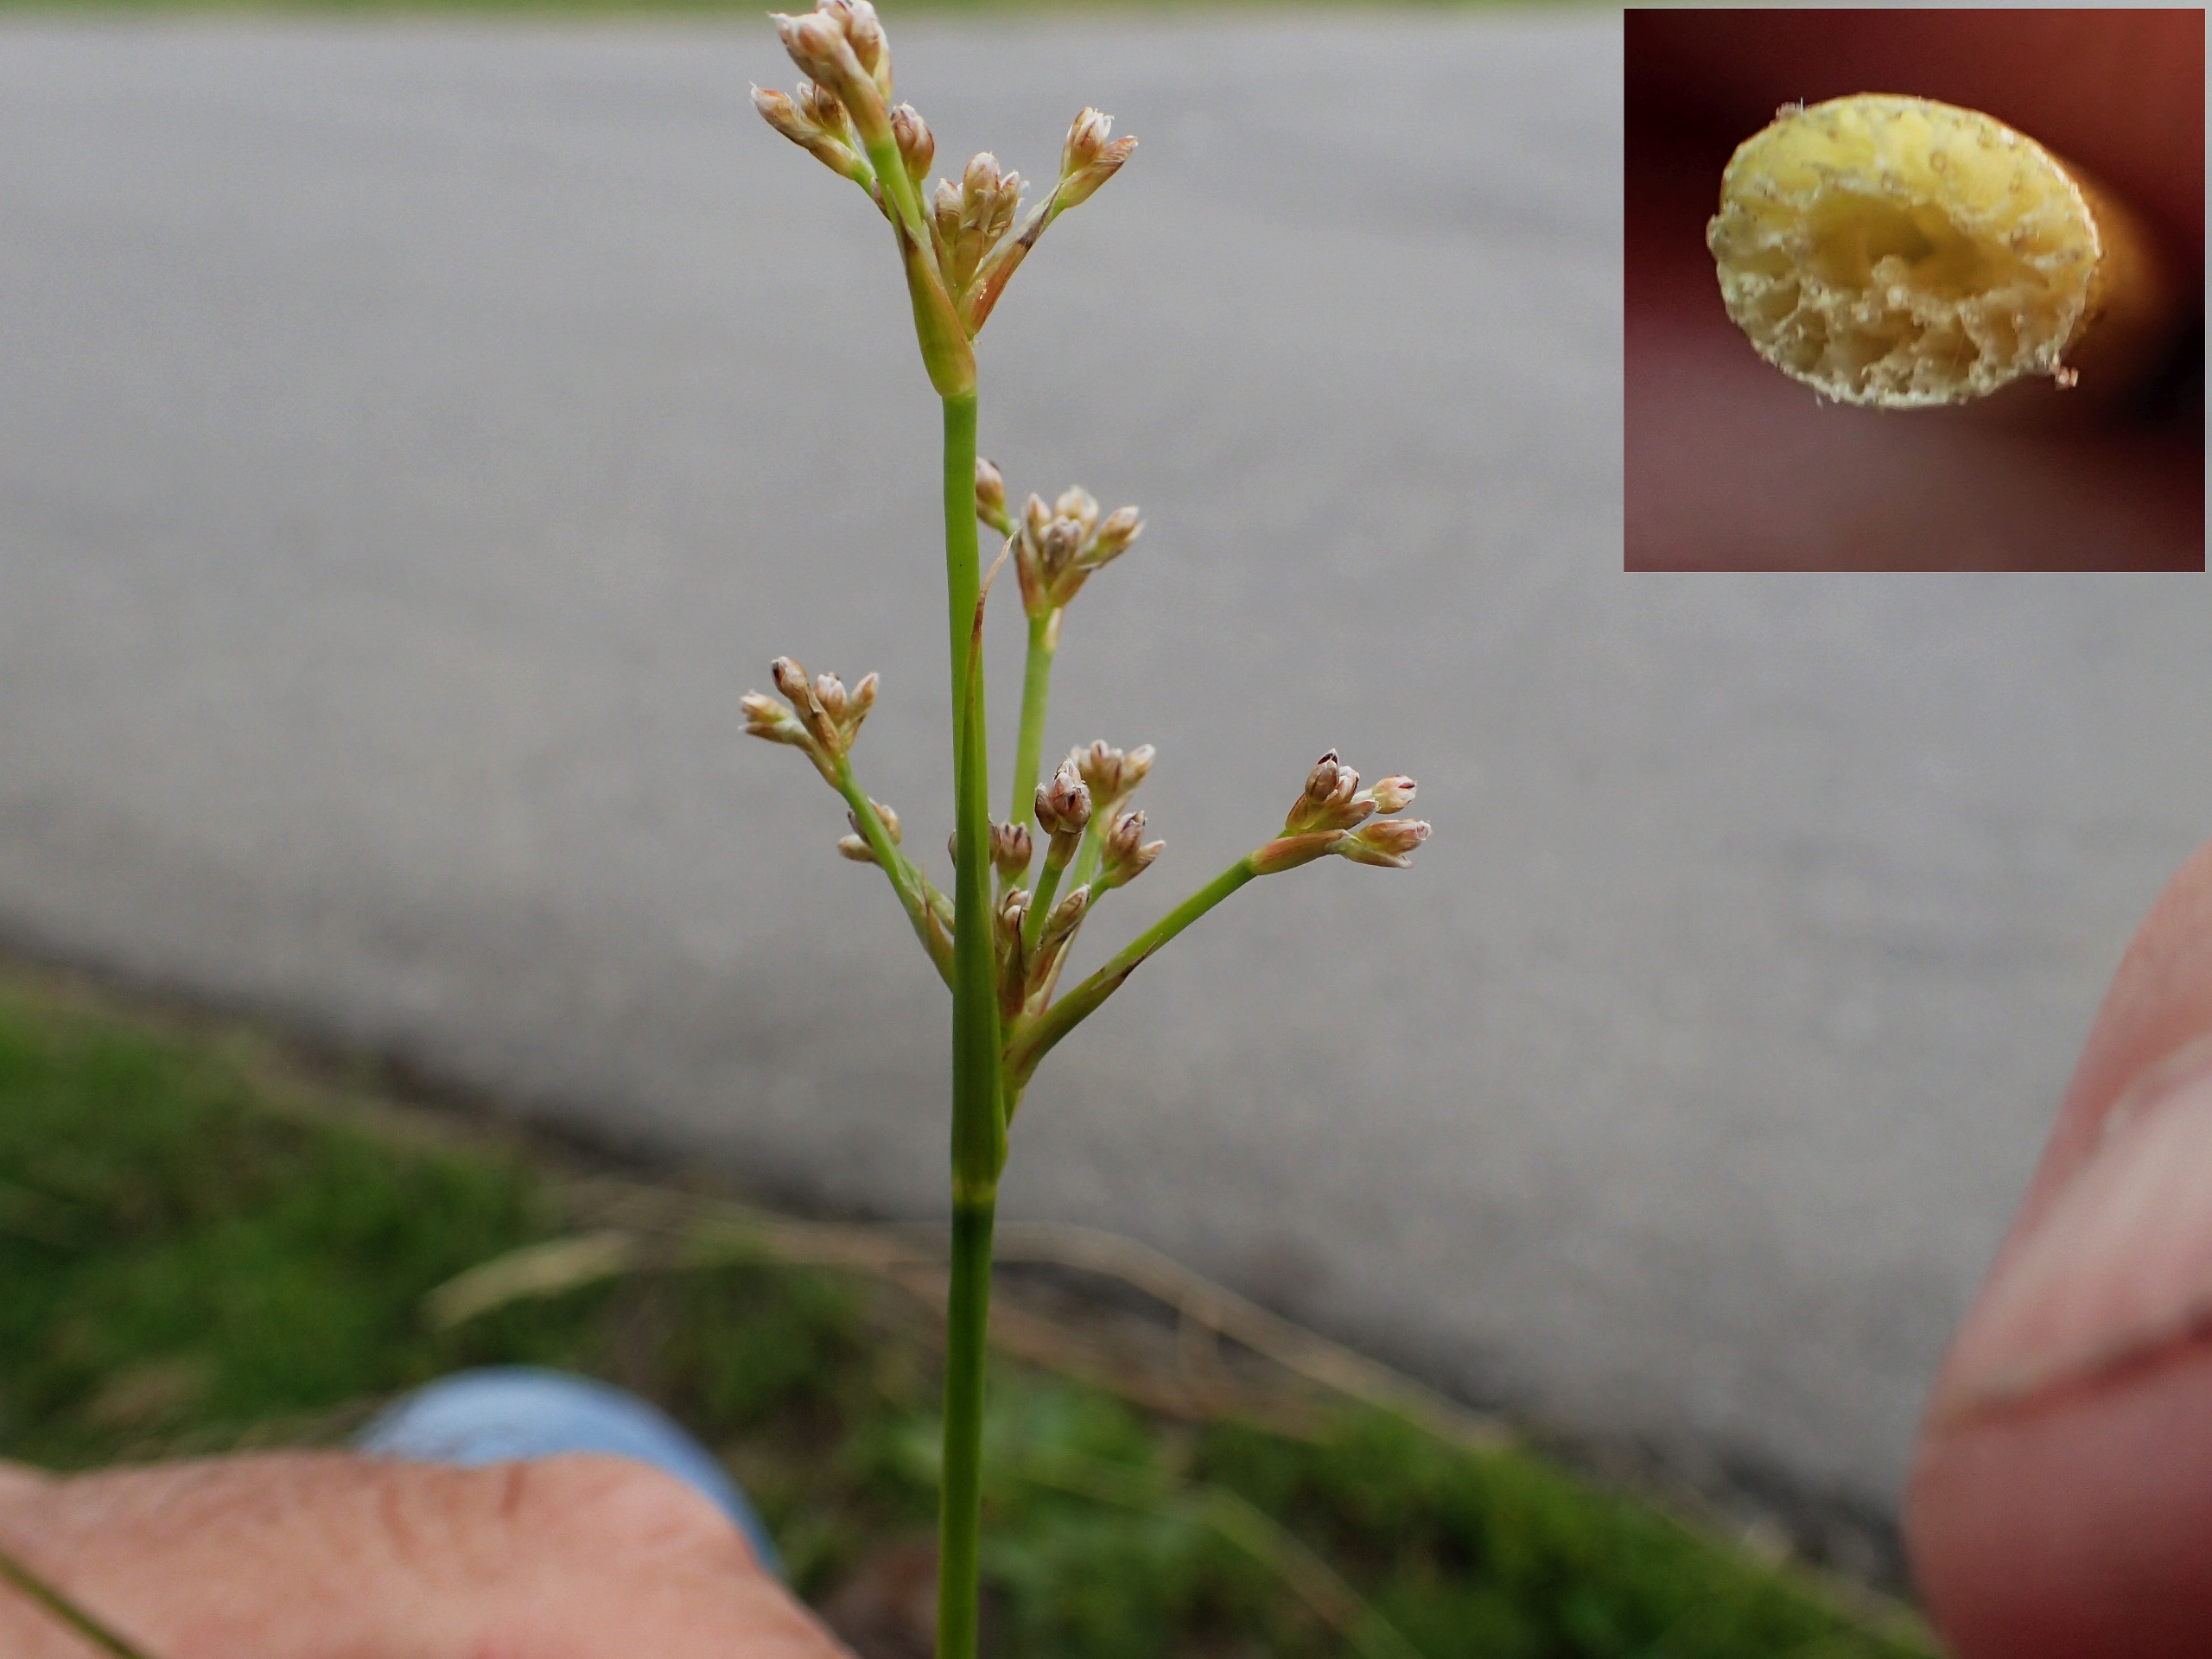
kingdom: Plantae
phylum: Tracheophyta
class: Liliopsida
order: Poales
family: Juncaceae
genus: Juncus
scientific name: Juncus subnodulosus
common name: Butblomstret siv
